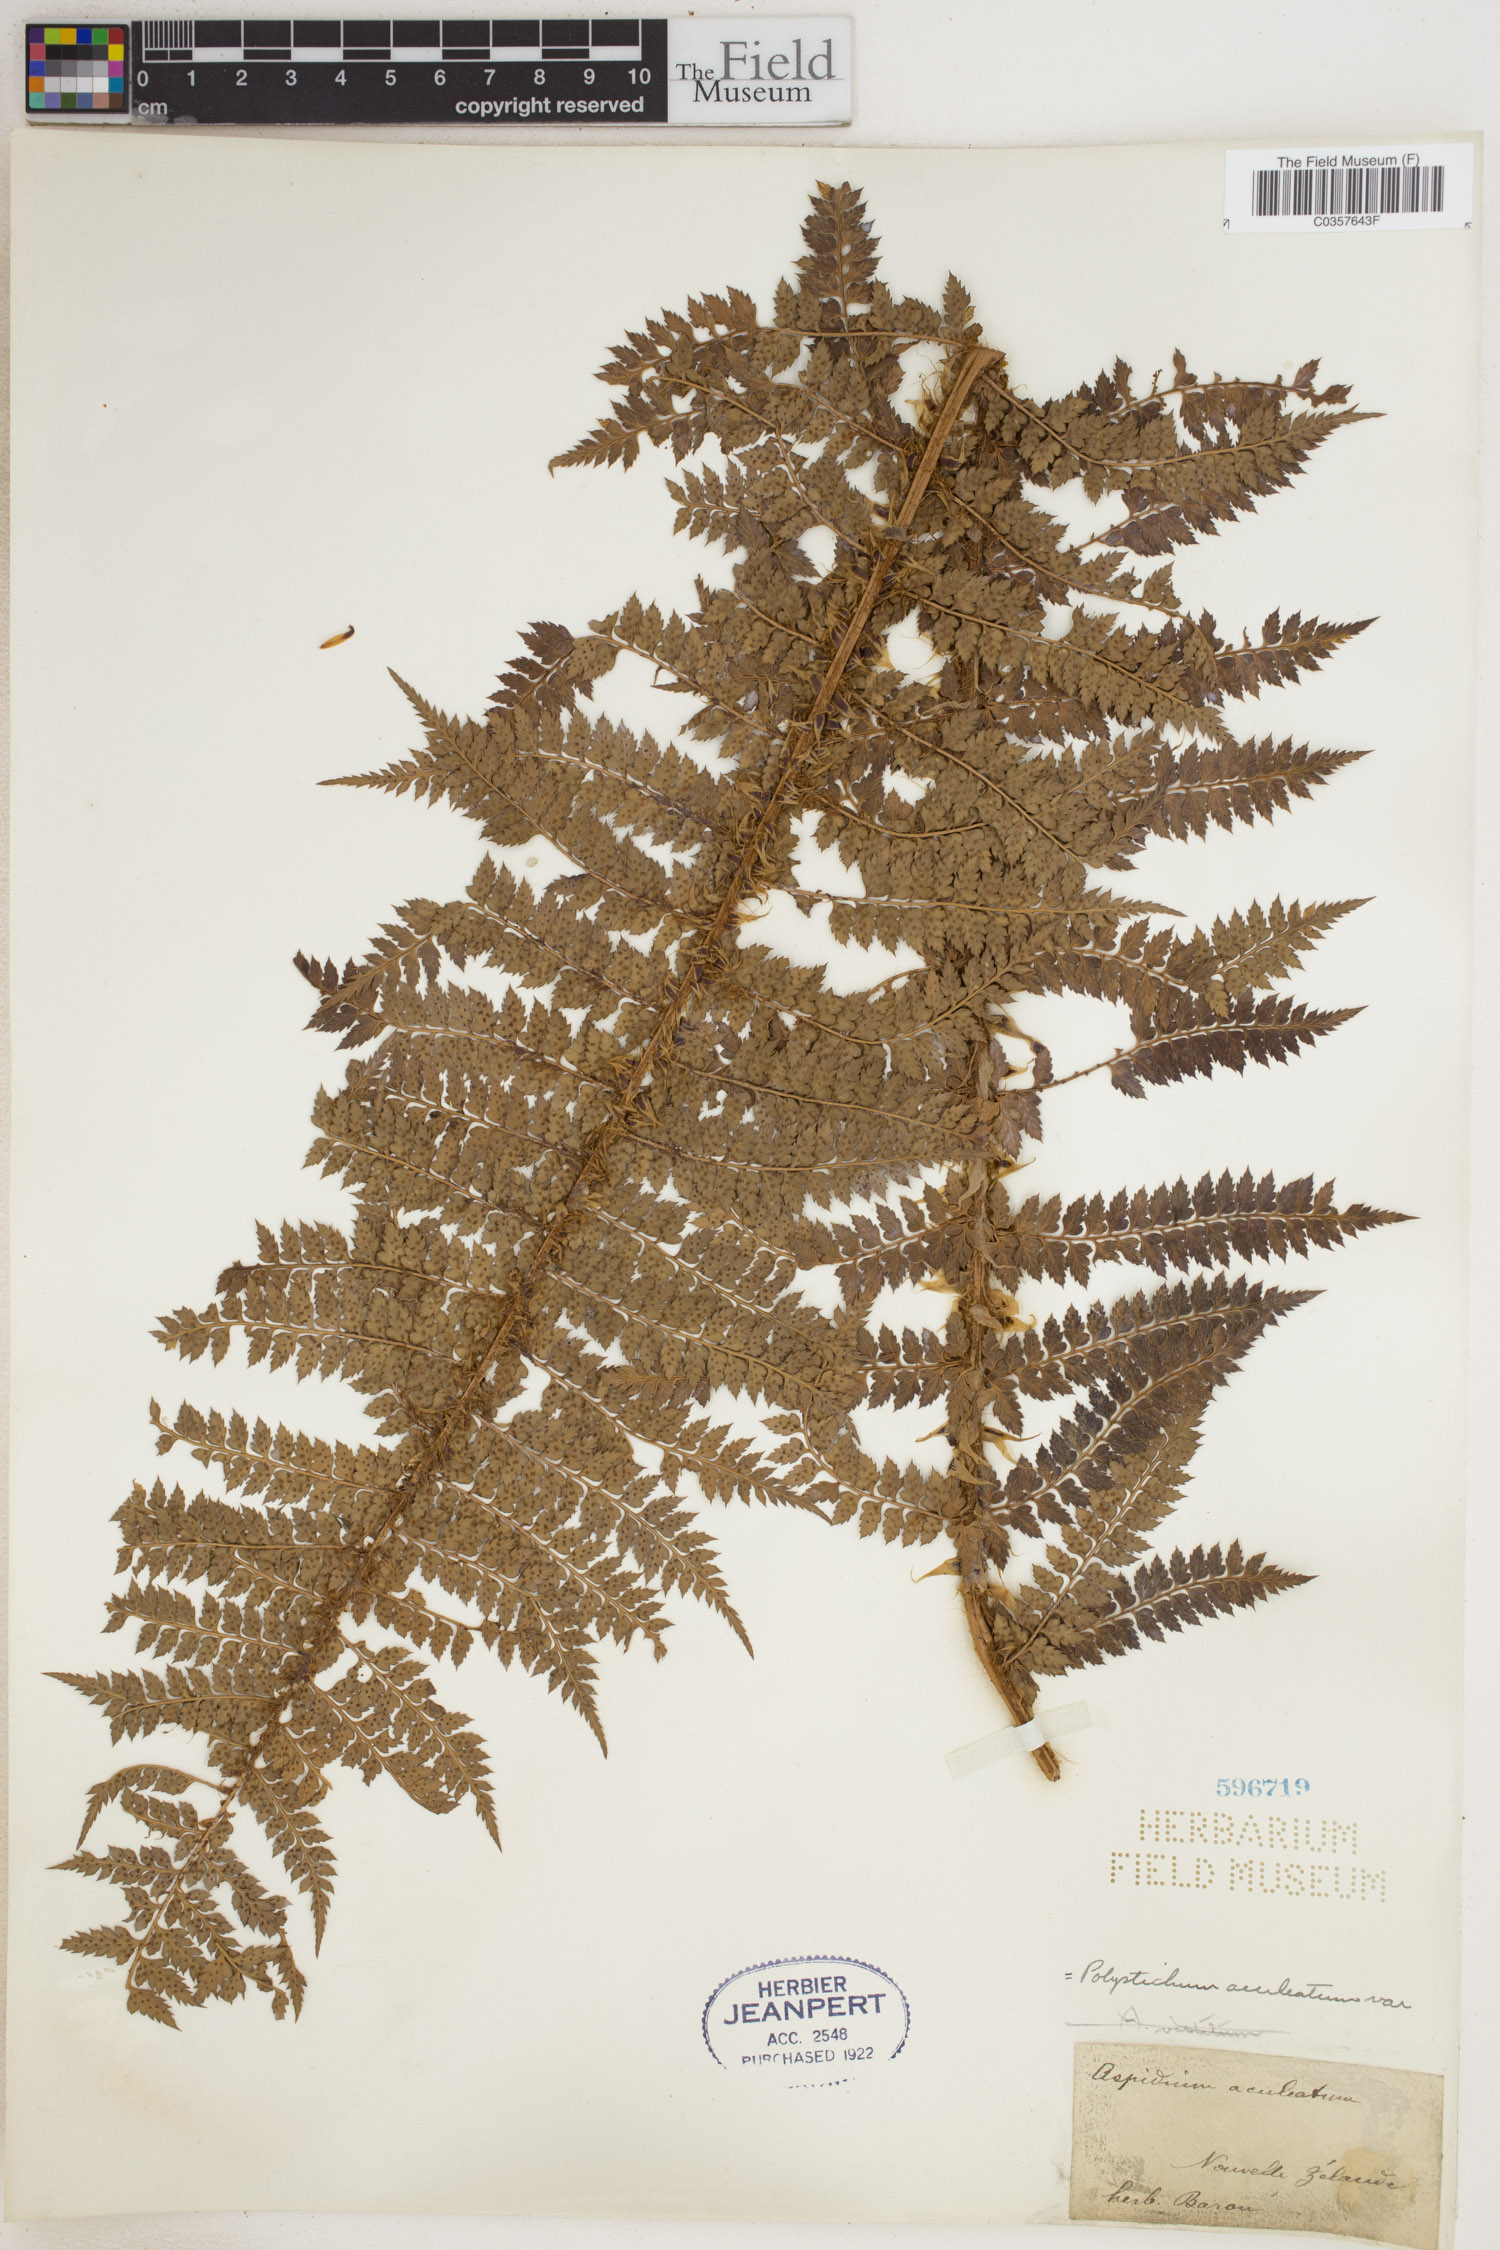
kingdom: Plantae
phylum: Tracheophyta
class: Polypodiopsida
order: Polypodiales
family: Dryopteridaceae
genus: Polystichum
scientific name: Polystichum aculeatum
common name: Hard shield-fern
